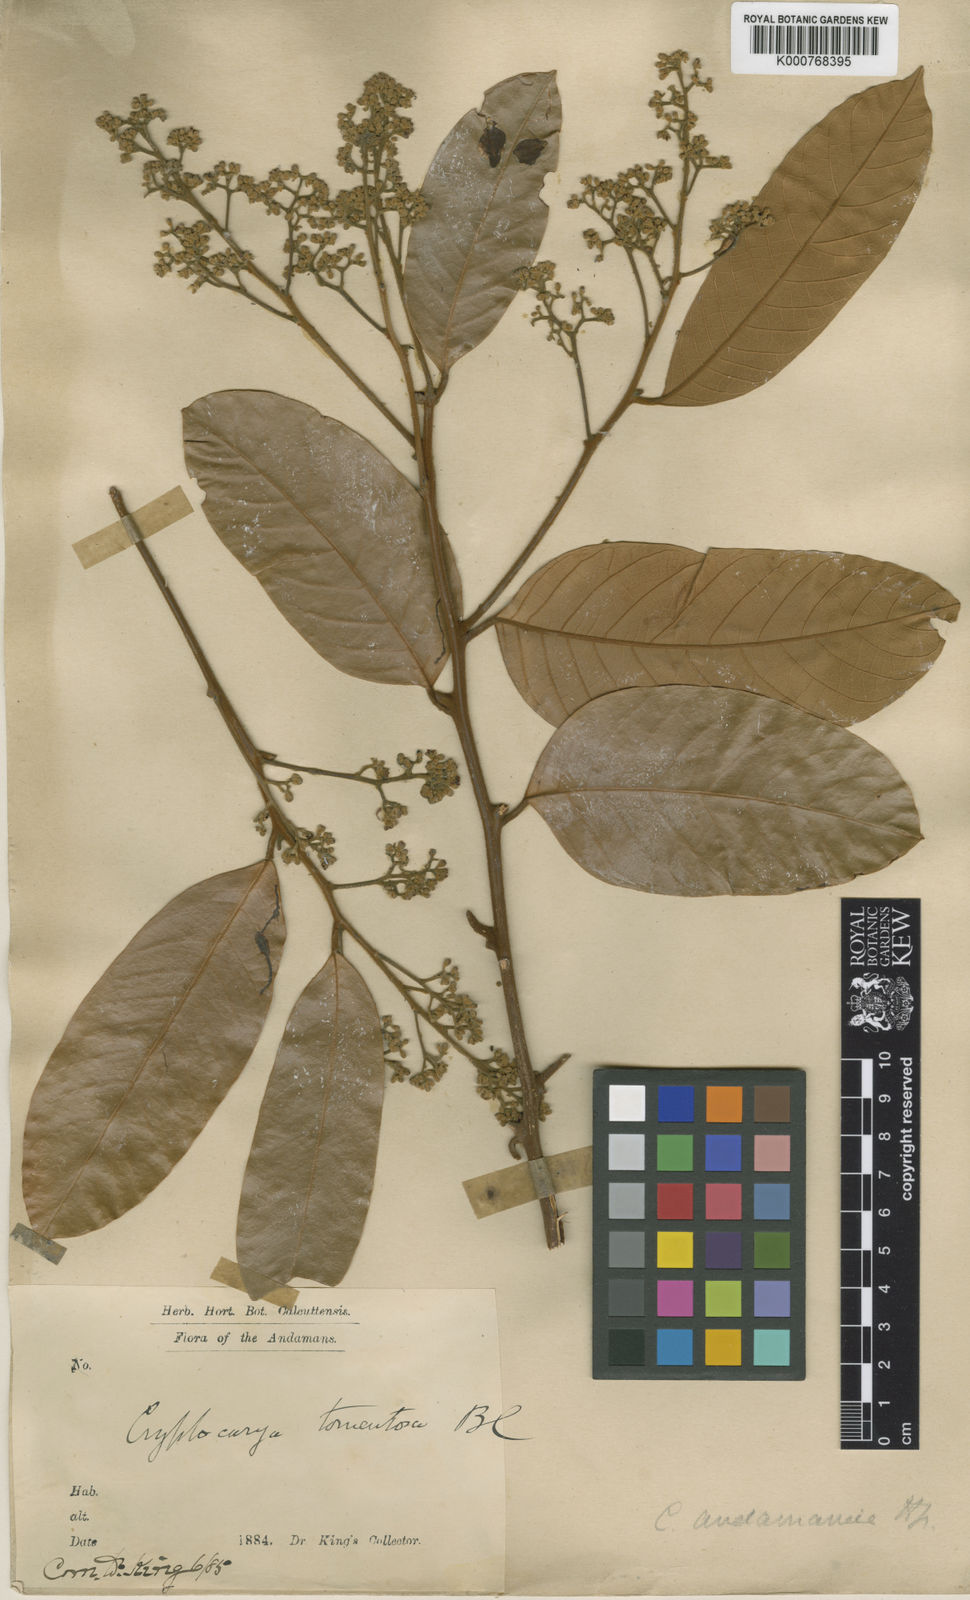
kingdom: Plantae
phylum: Tracheophyta
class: Magnoliopsida
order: Laurales
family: Lauraceae
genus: Cryptocarya
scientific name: Cryptocarya andamanica
